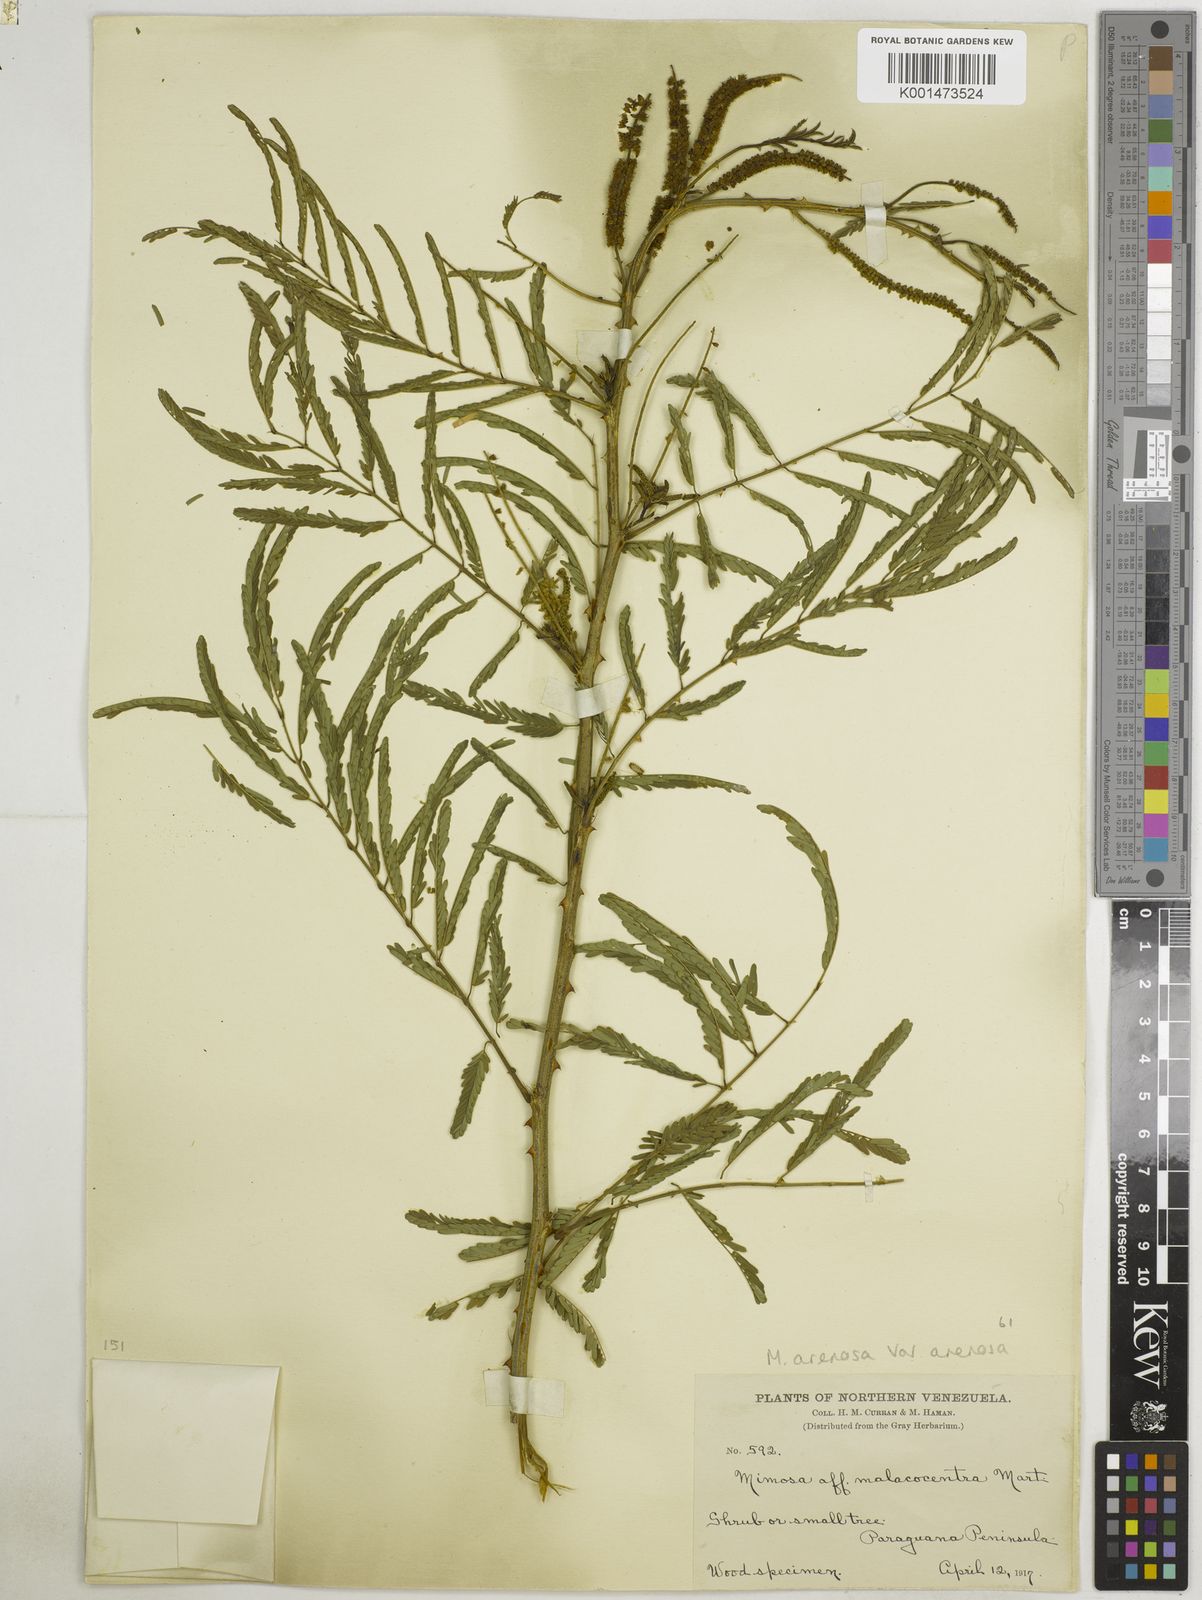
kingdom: Plantae
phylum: Tracheophyta
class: Magnoliopsida
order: Fabales
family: Fabaceae
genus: Mimosa
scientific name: Mimosa arenosa
